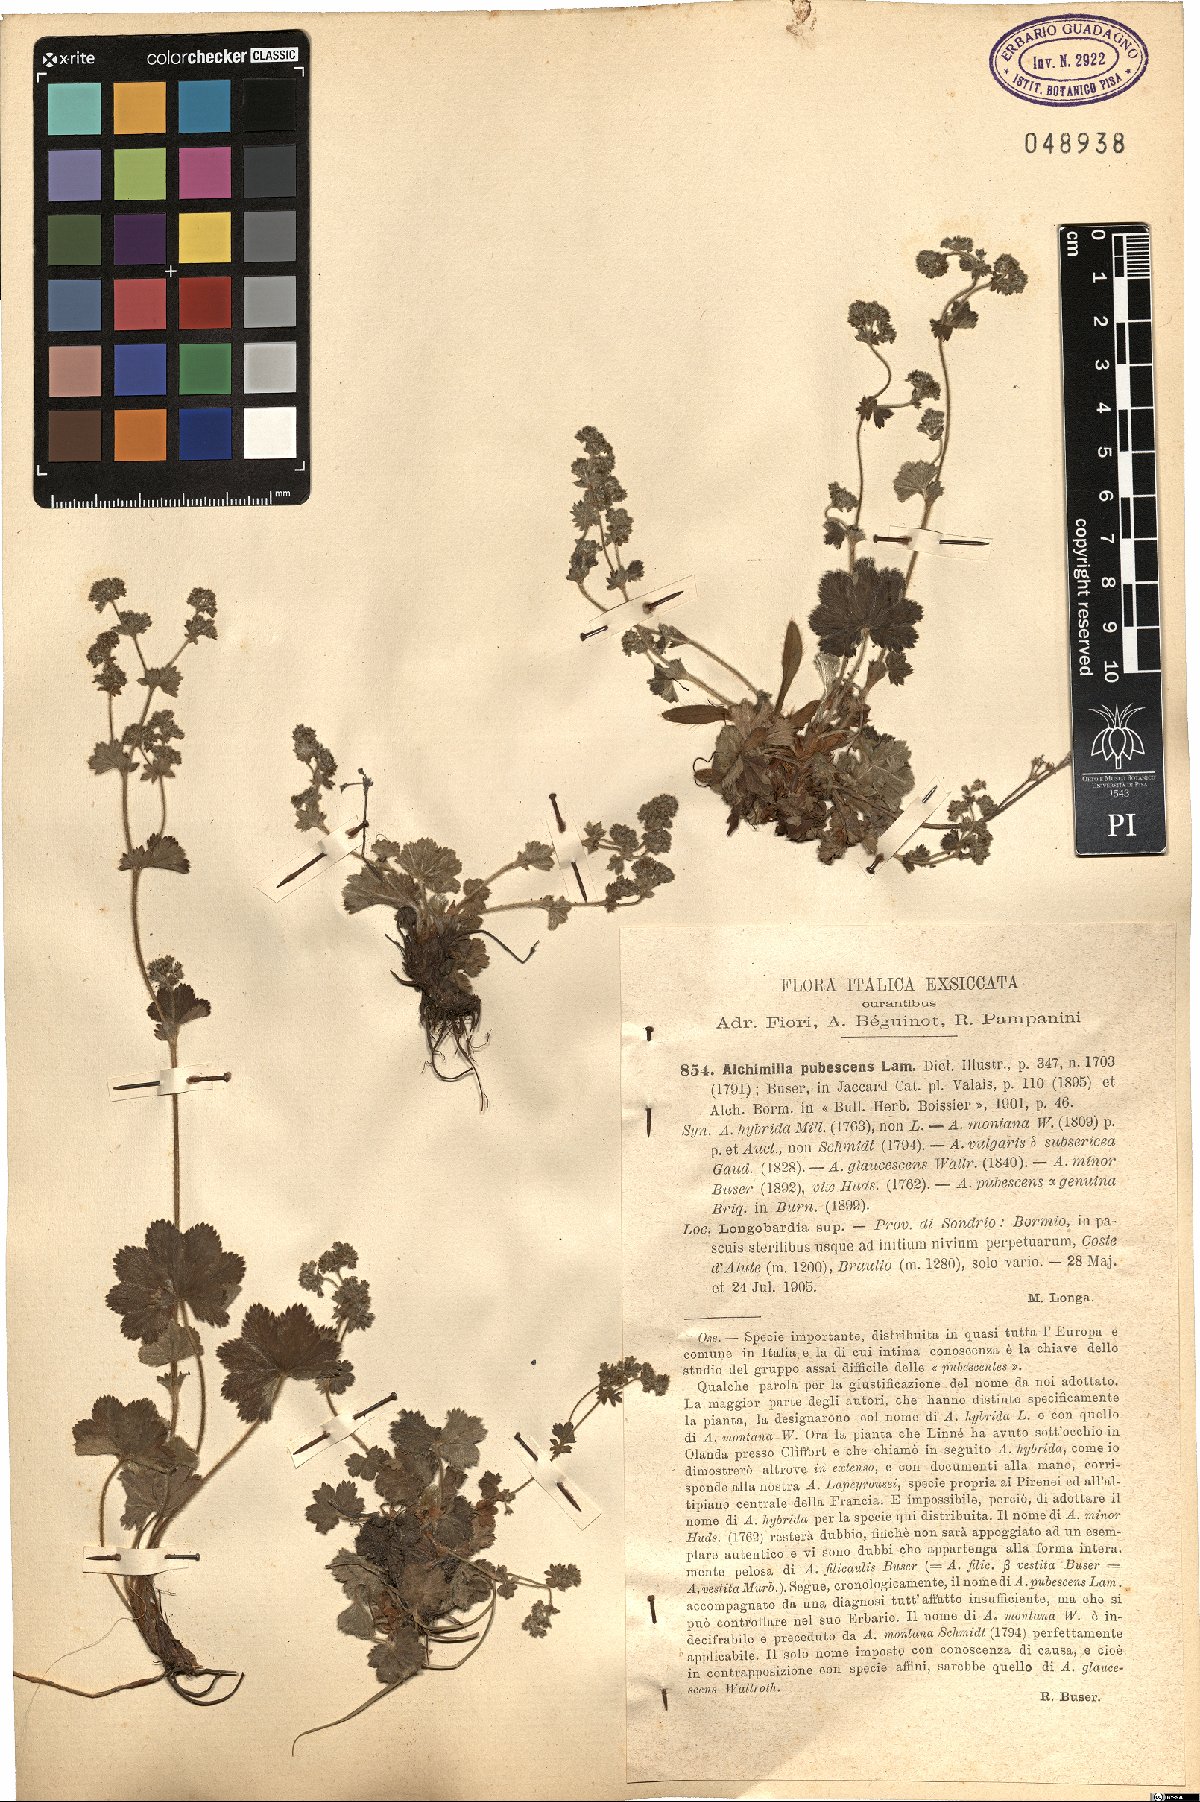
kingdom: Plantae
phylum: Tracheophyta
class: Magnoliopsida
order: Rosales
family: Rosaceae
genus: Alchemilla
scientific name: Alchemilla glaucescens
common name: Silky lady's mantle
